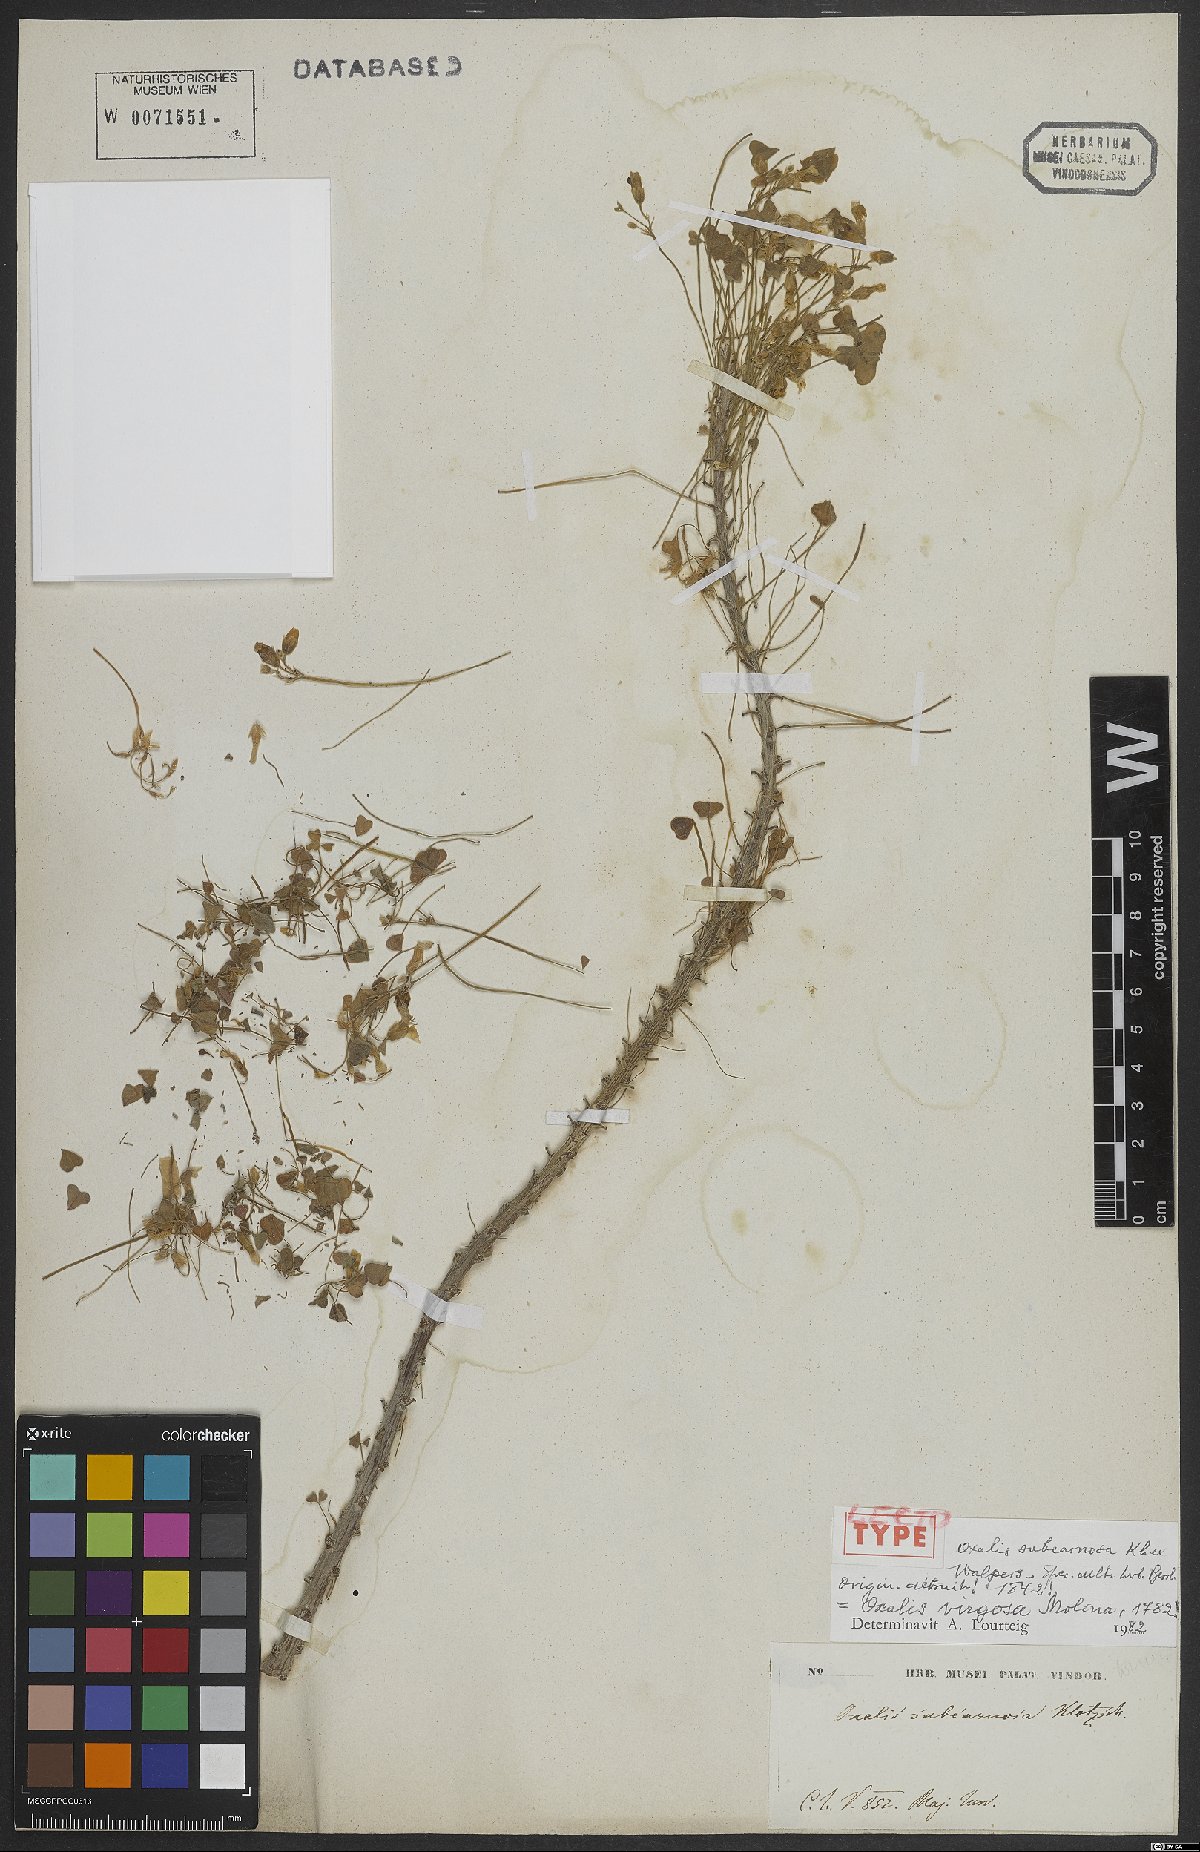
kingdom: Plantae
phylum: Tracheophyta
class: Magnoliopsida
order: Oxalidales
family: Oxalidaceae
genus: Oxalis
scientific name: Oxalis virgosa
